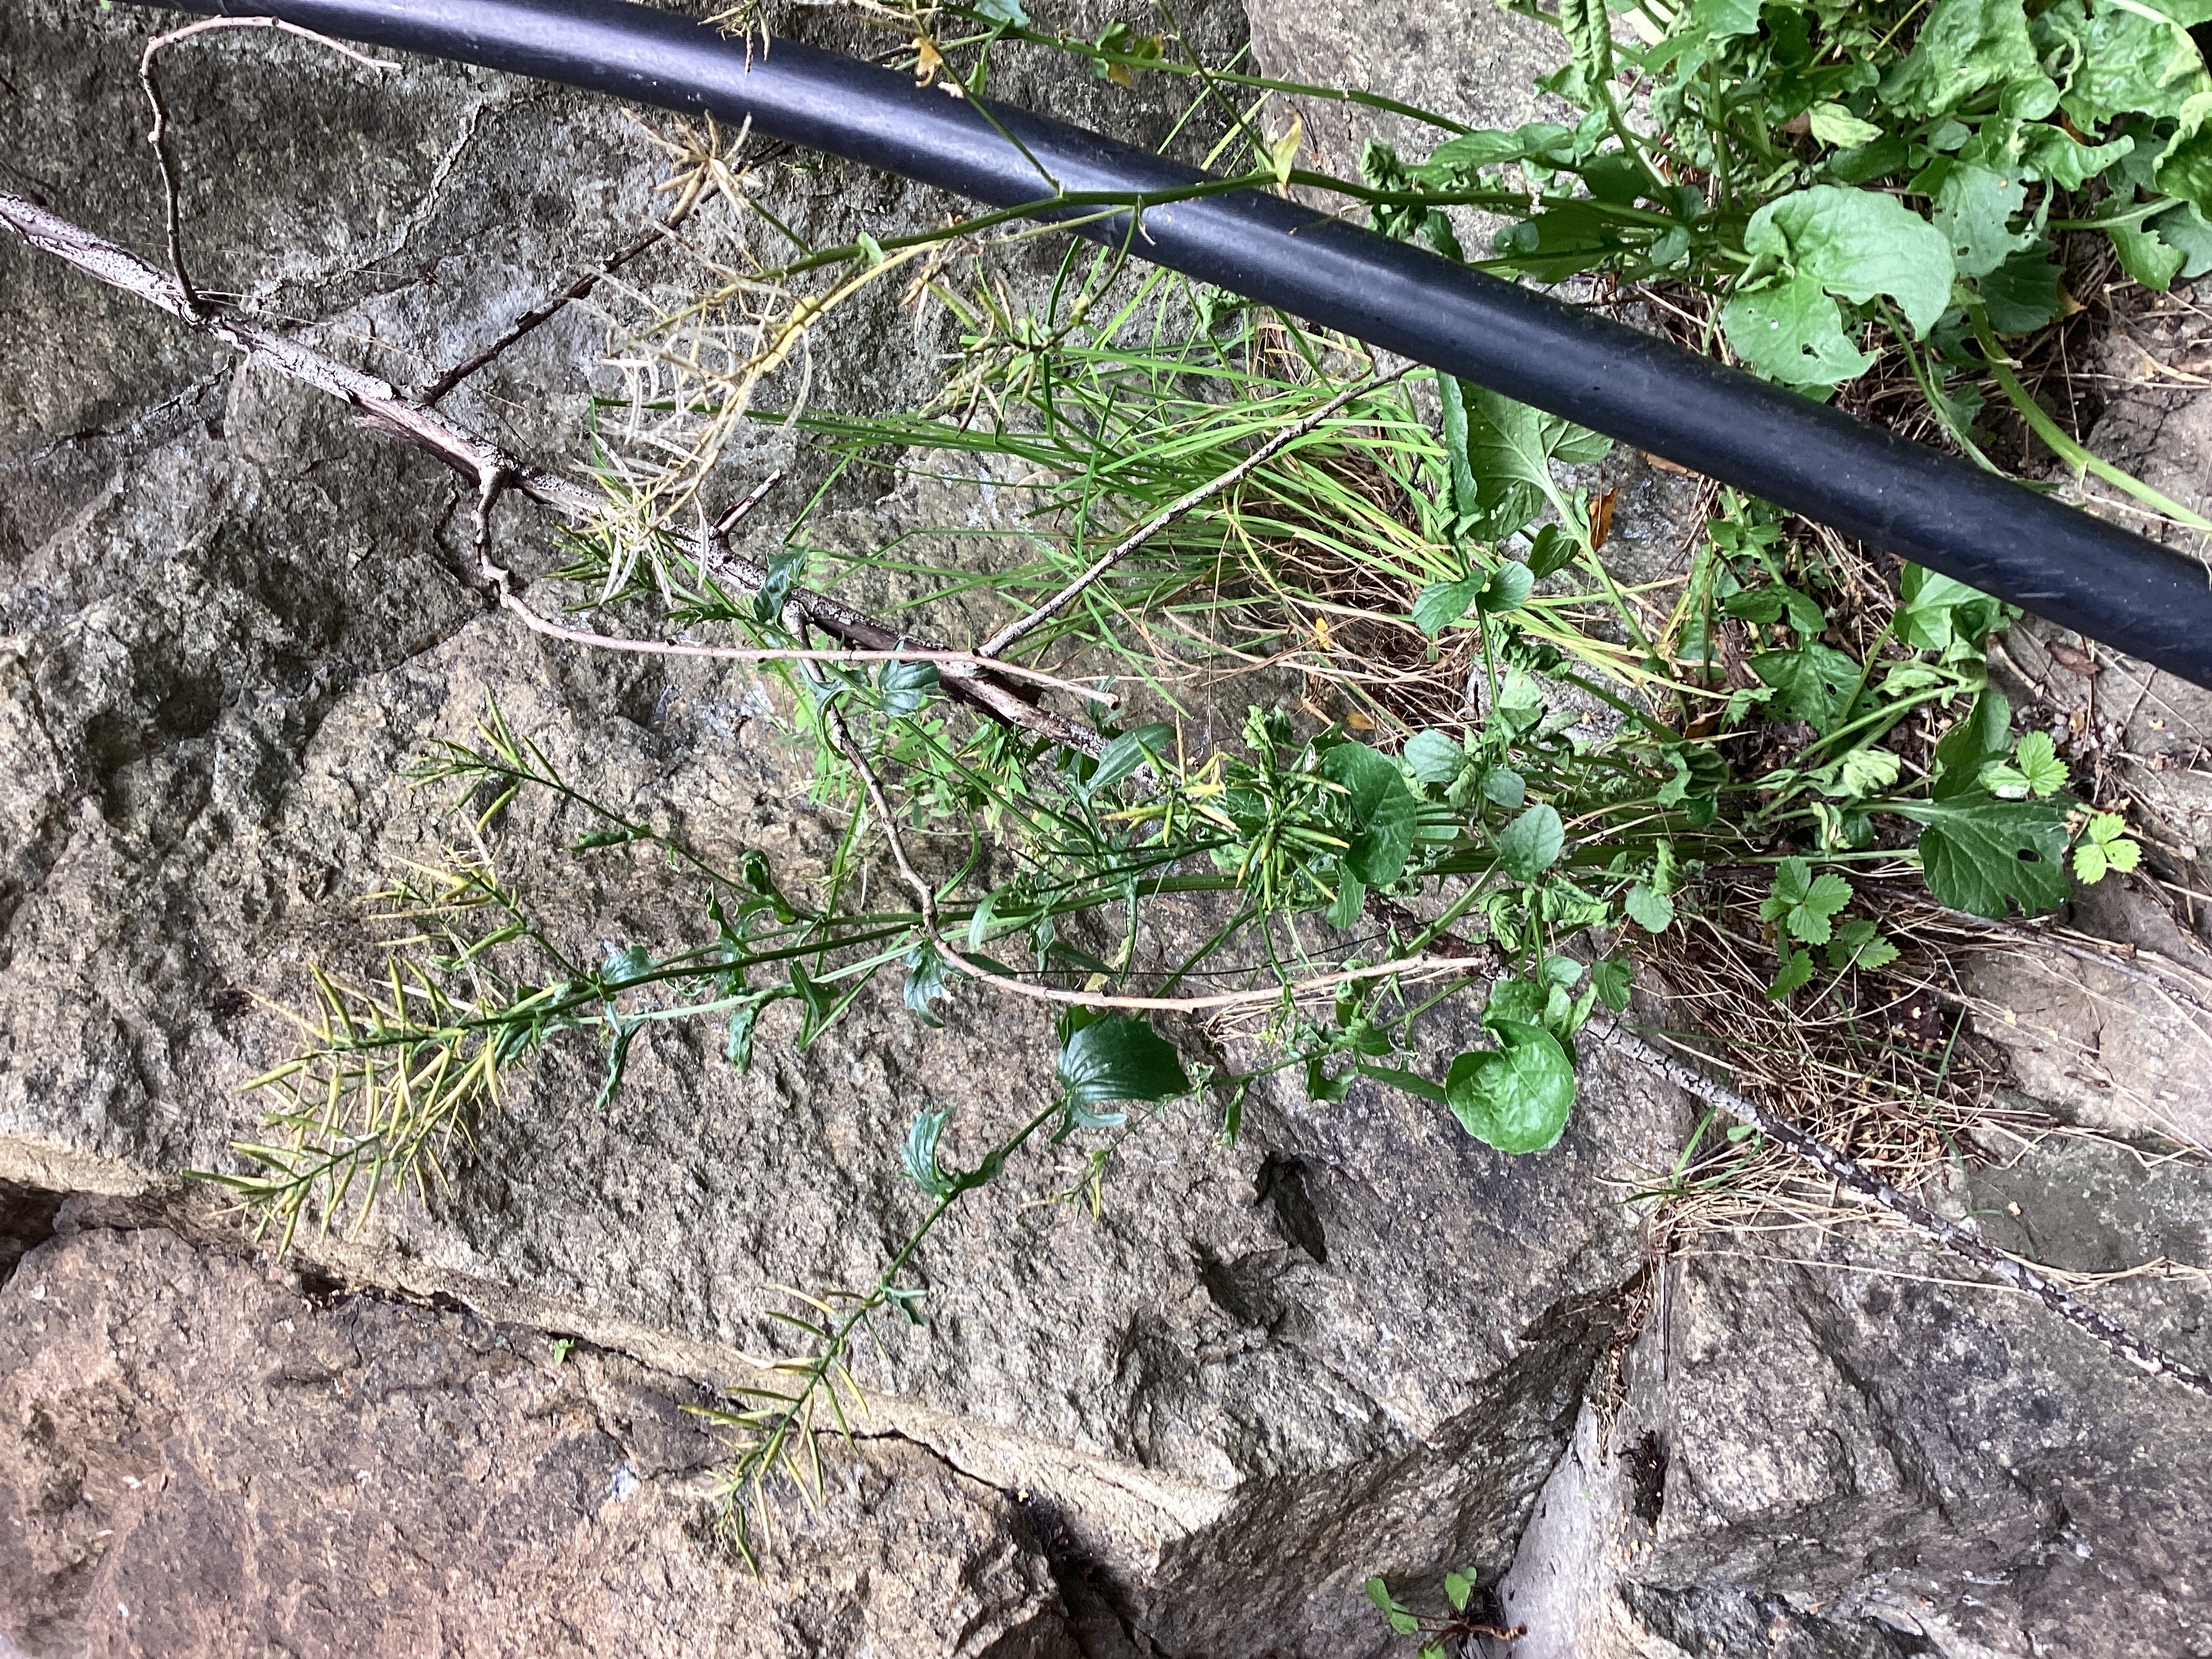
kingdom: Plantae
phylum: Tracheophyta
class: Magnoliopsida
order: Brassicales
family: Brassicaceae
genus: Barbarea
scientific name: Barbarea vulgaris
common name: vinterkarse
